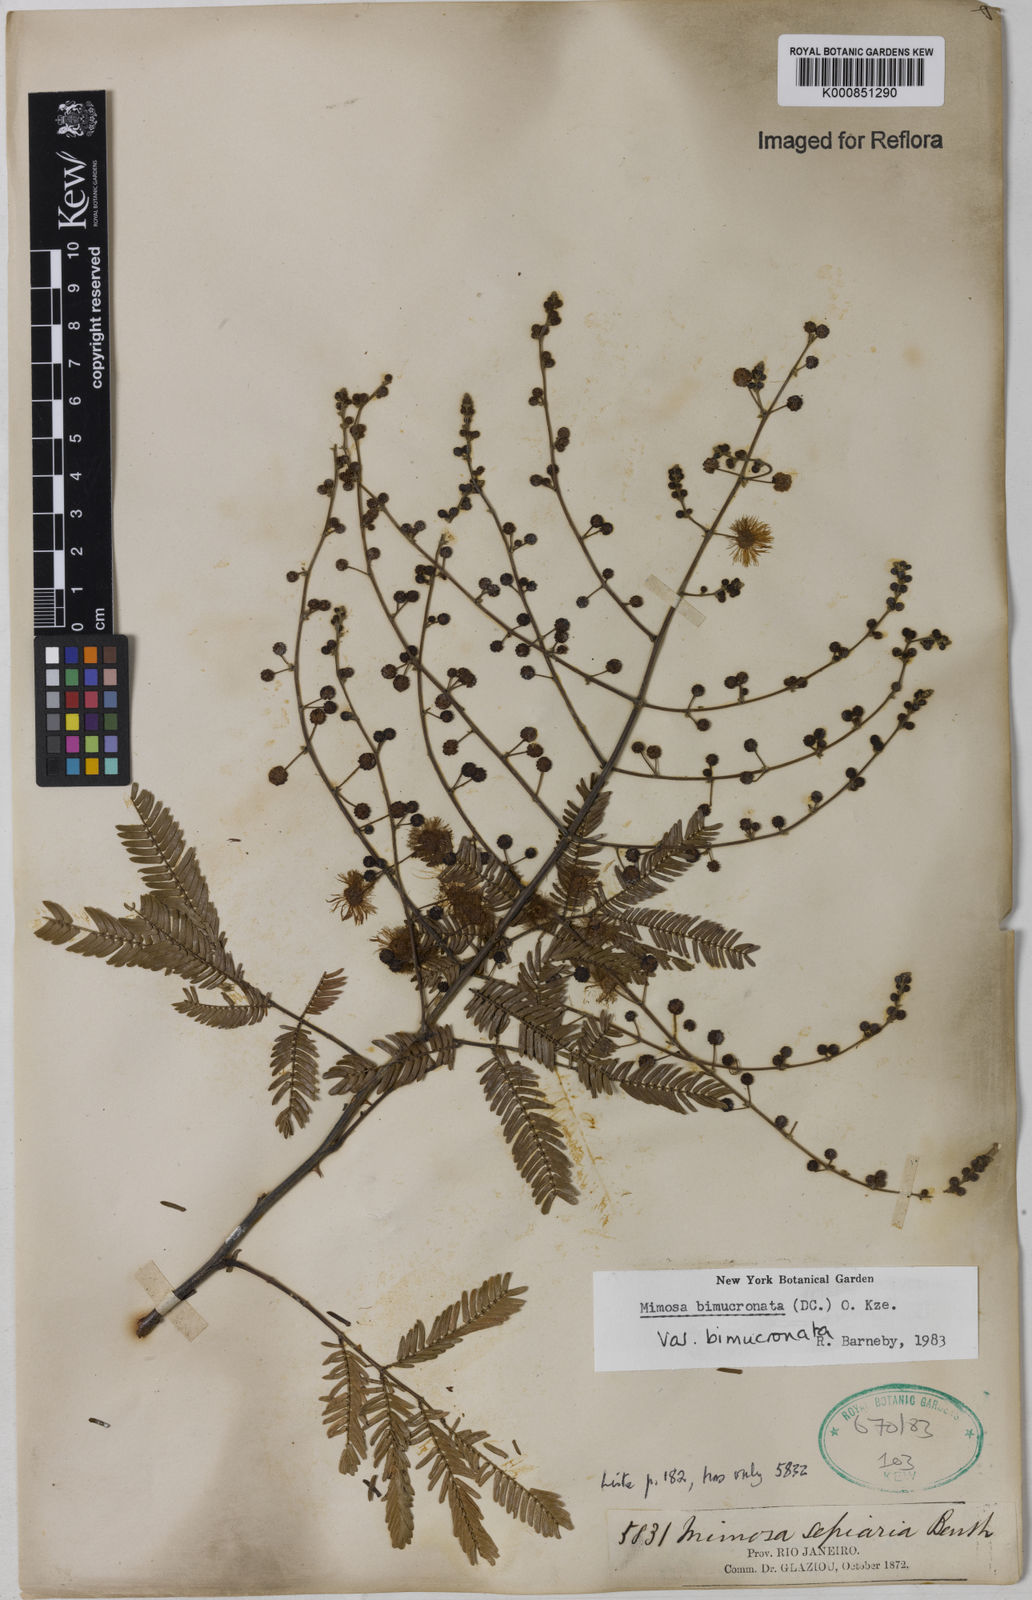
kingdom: Plantae
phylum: Tracheophyta
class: Magnoliopsida
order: Fabales
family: Fabaceae
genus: Mimosa
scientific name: Mimosa bimucronata
